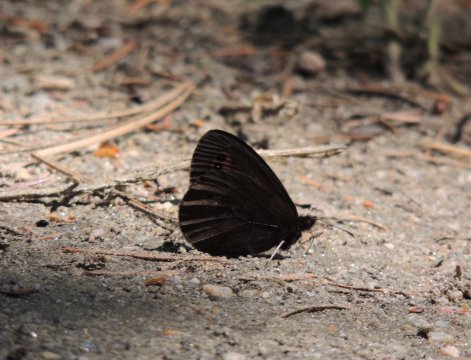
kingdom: Animalia
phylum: Arthropoda
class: Insecta
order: Lepidoptera
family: Nymphalidae
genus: Erebia
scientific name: Erebia epipsodea
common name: Common Alpine
